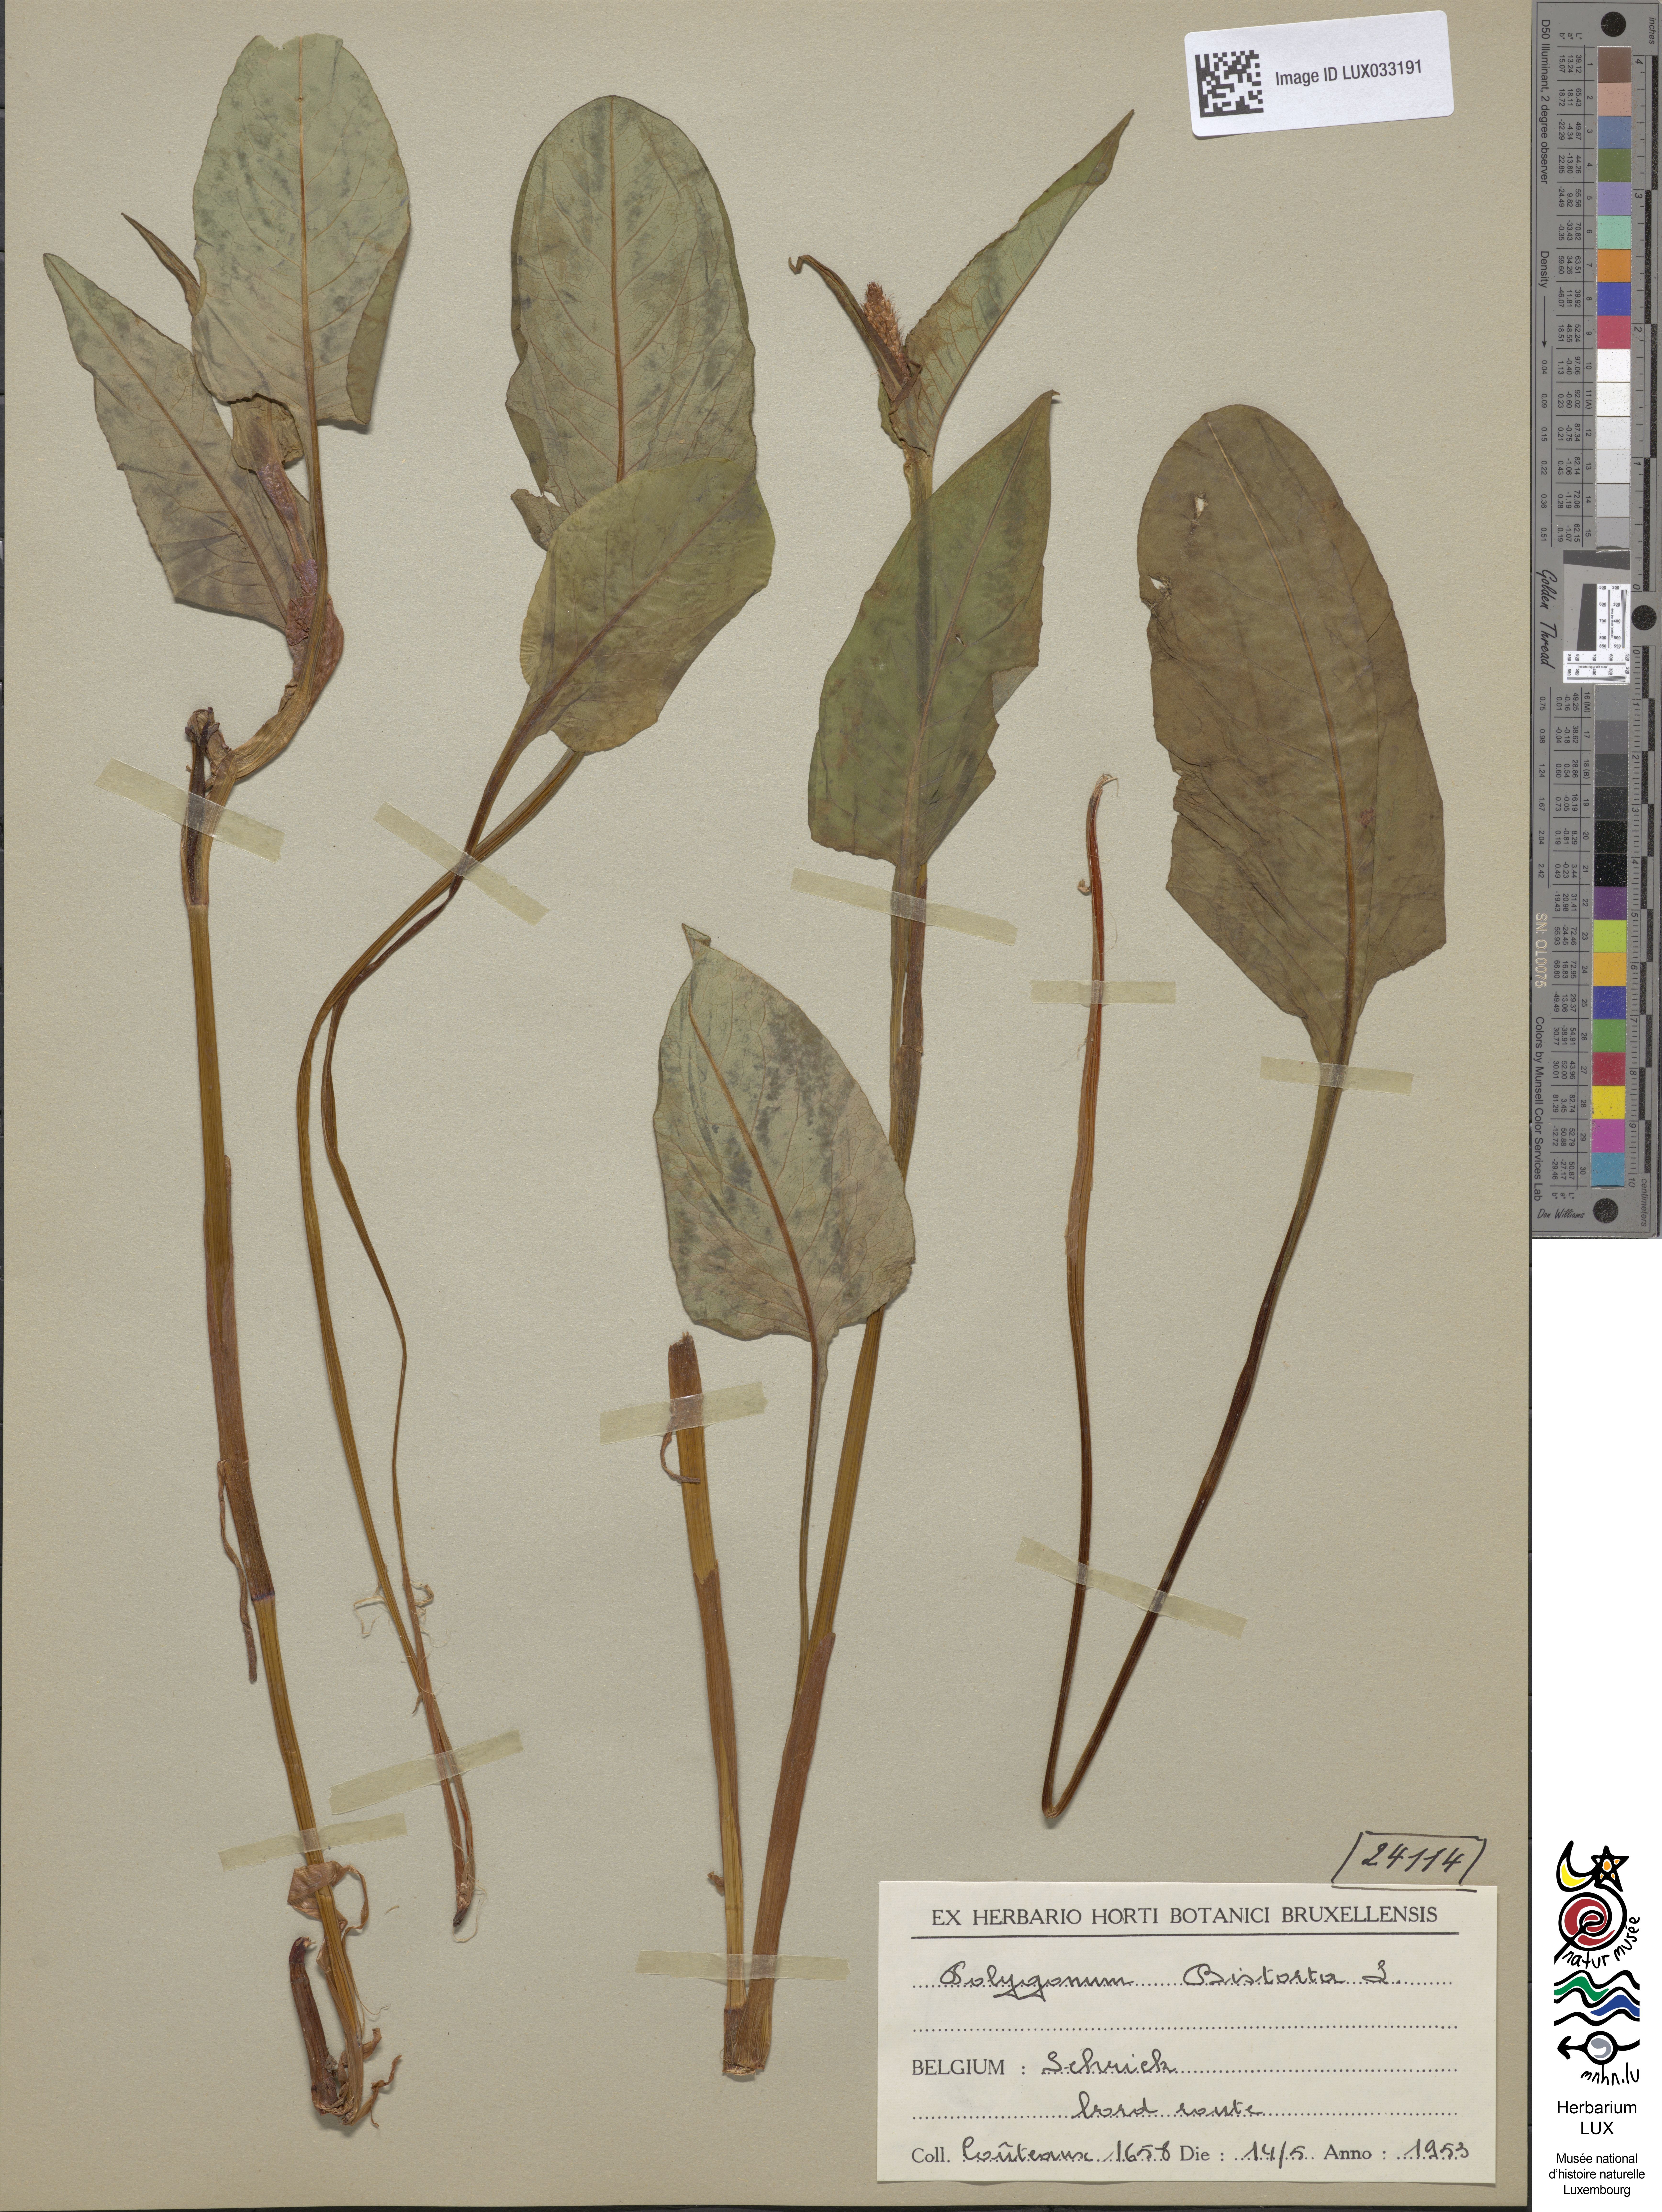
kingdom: Plantae
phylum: Tracheophyta
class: Magnoliopsida
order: Caryophyllales
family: Polygonaceae
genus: Bistorta
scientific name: Bistorta officinalis
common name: Common bistort
